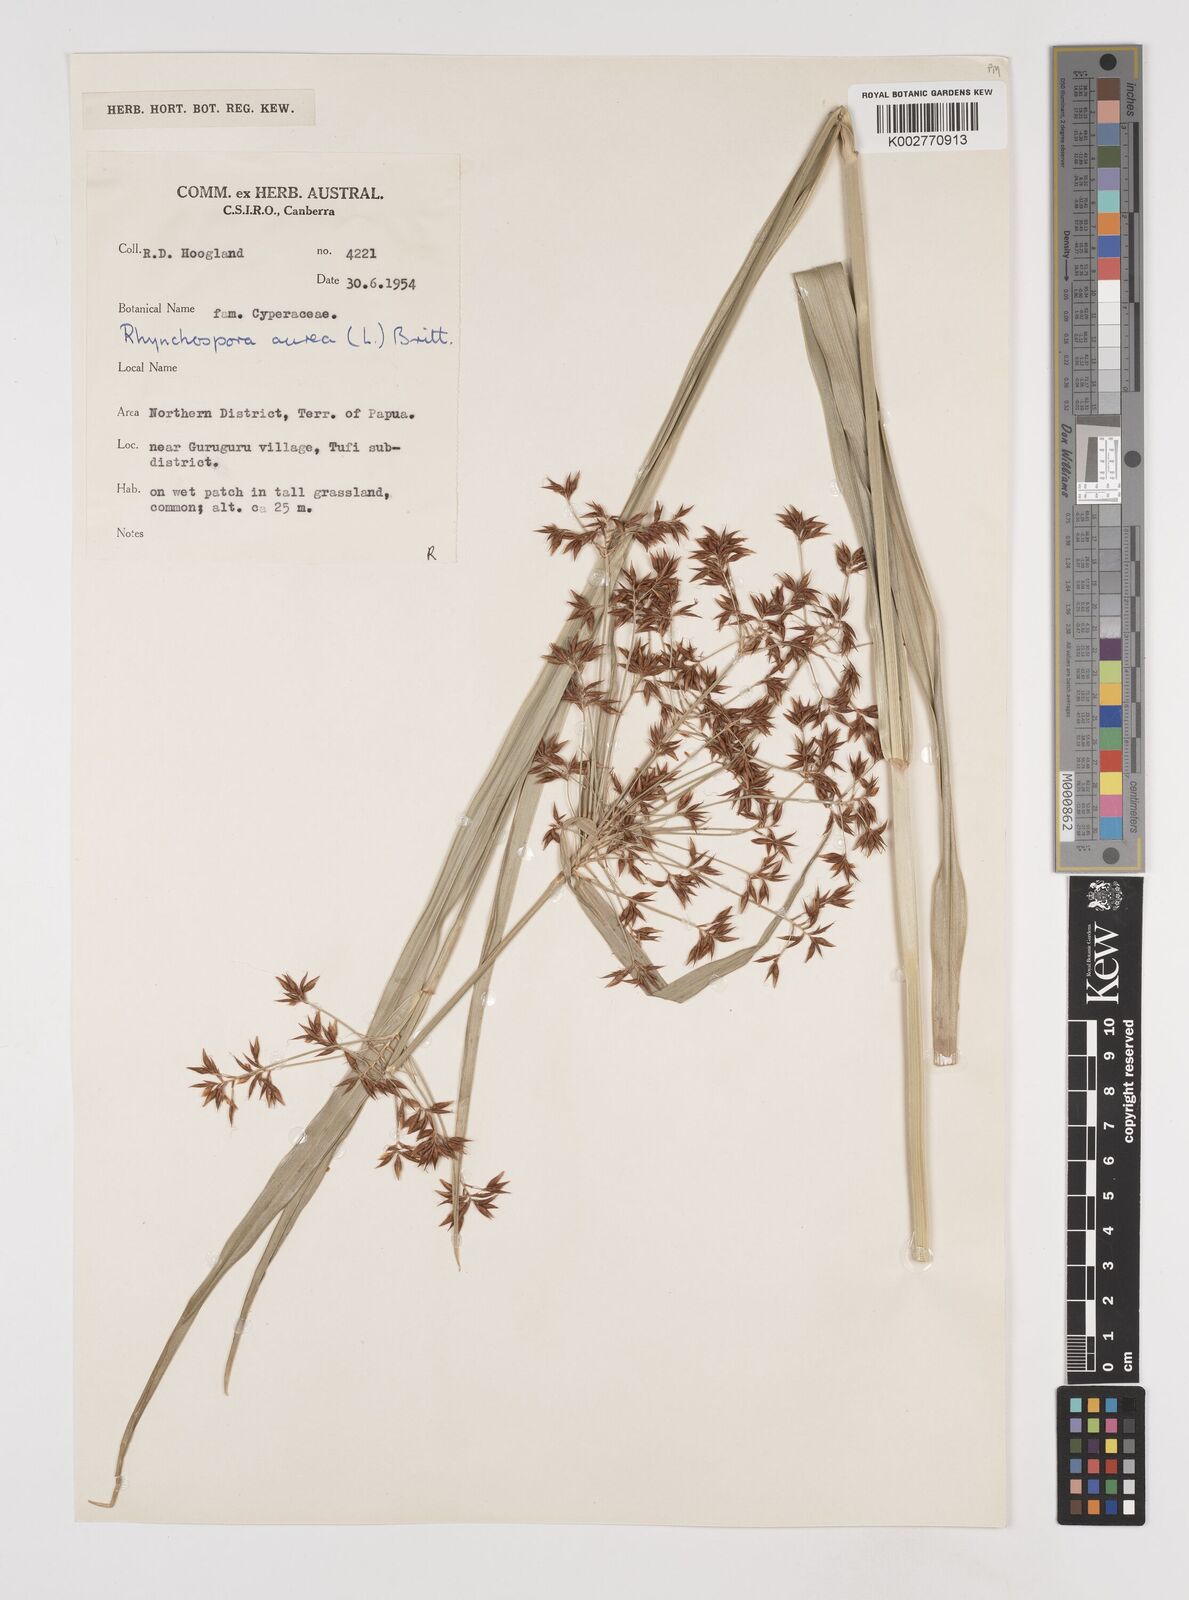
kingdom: Plantae
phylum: Tracheophyta
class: Liliopsida
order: Poales
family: Cyperaceae
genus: Rhynchospora
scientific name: Rhynchospora corymbosa
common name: Golden beak sedge
